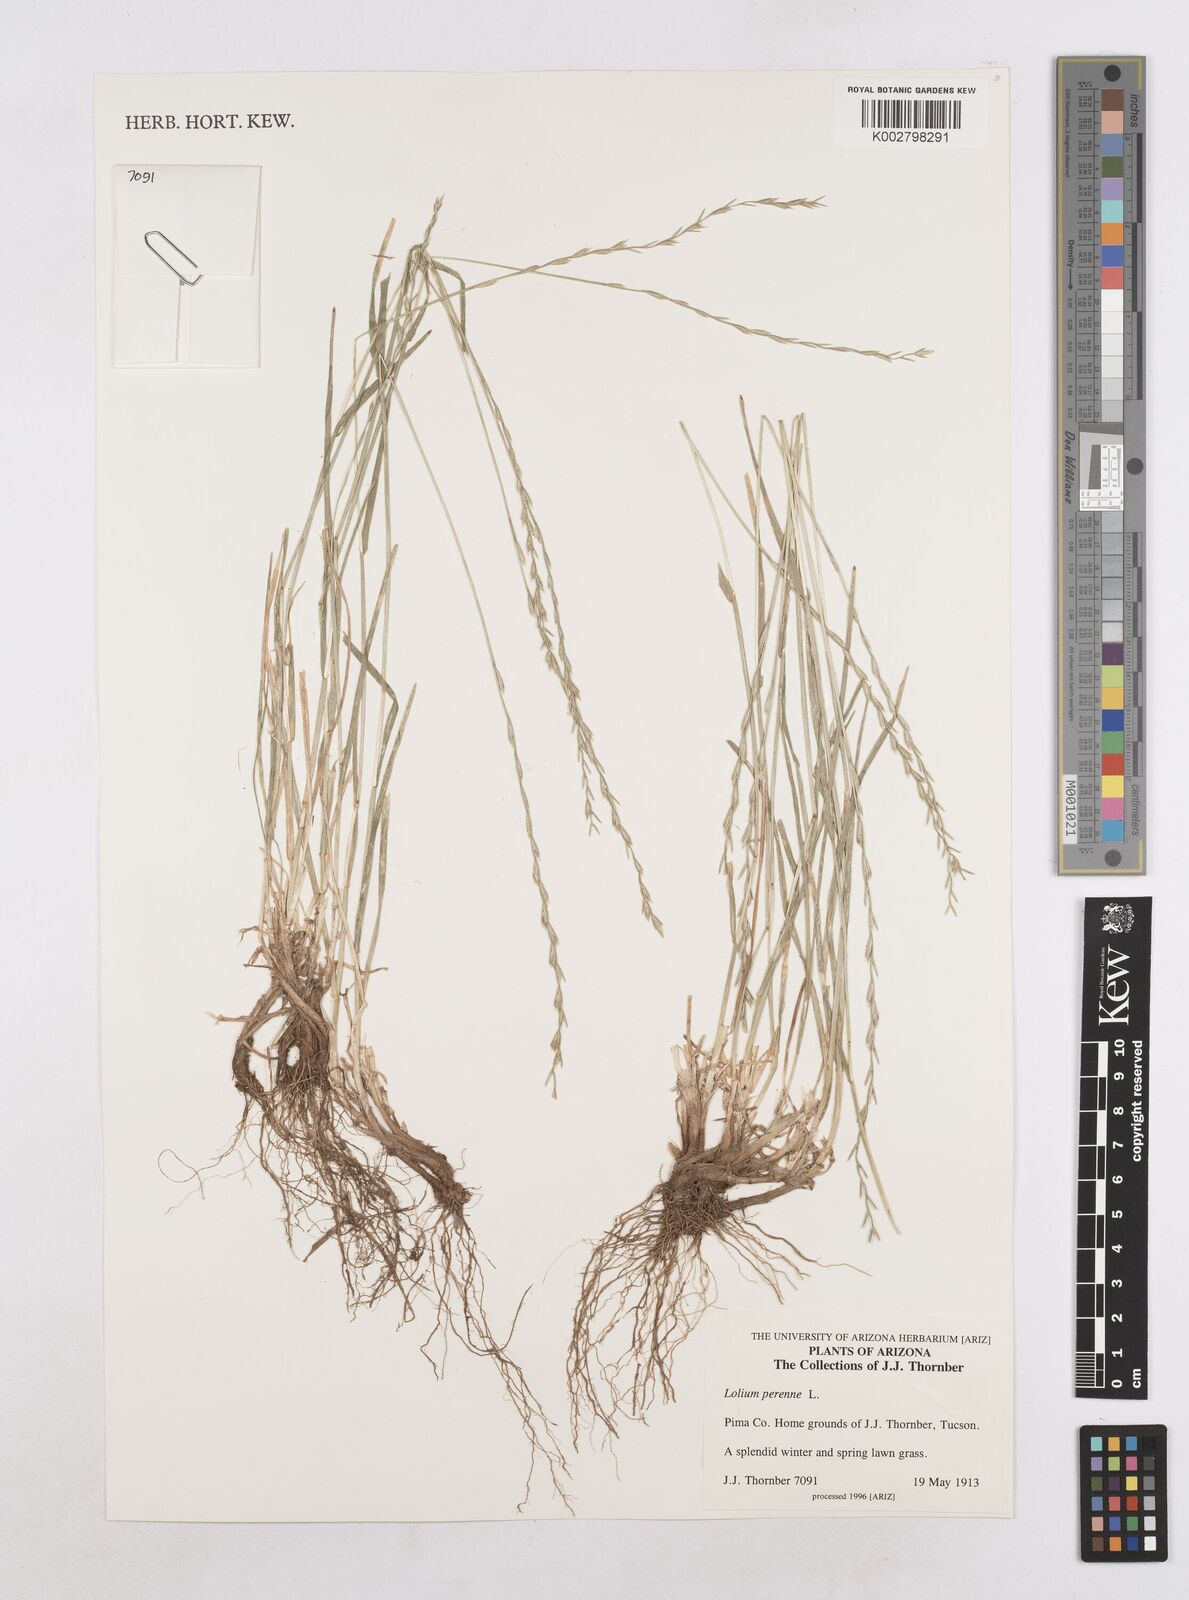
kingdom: Plantae
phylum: Tracheophyta
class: Liliopsida
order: Poales
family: Poaceae
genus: Lolium
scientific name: Lolium perenne
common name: Perennial ryegrass
